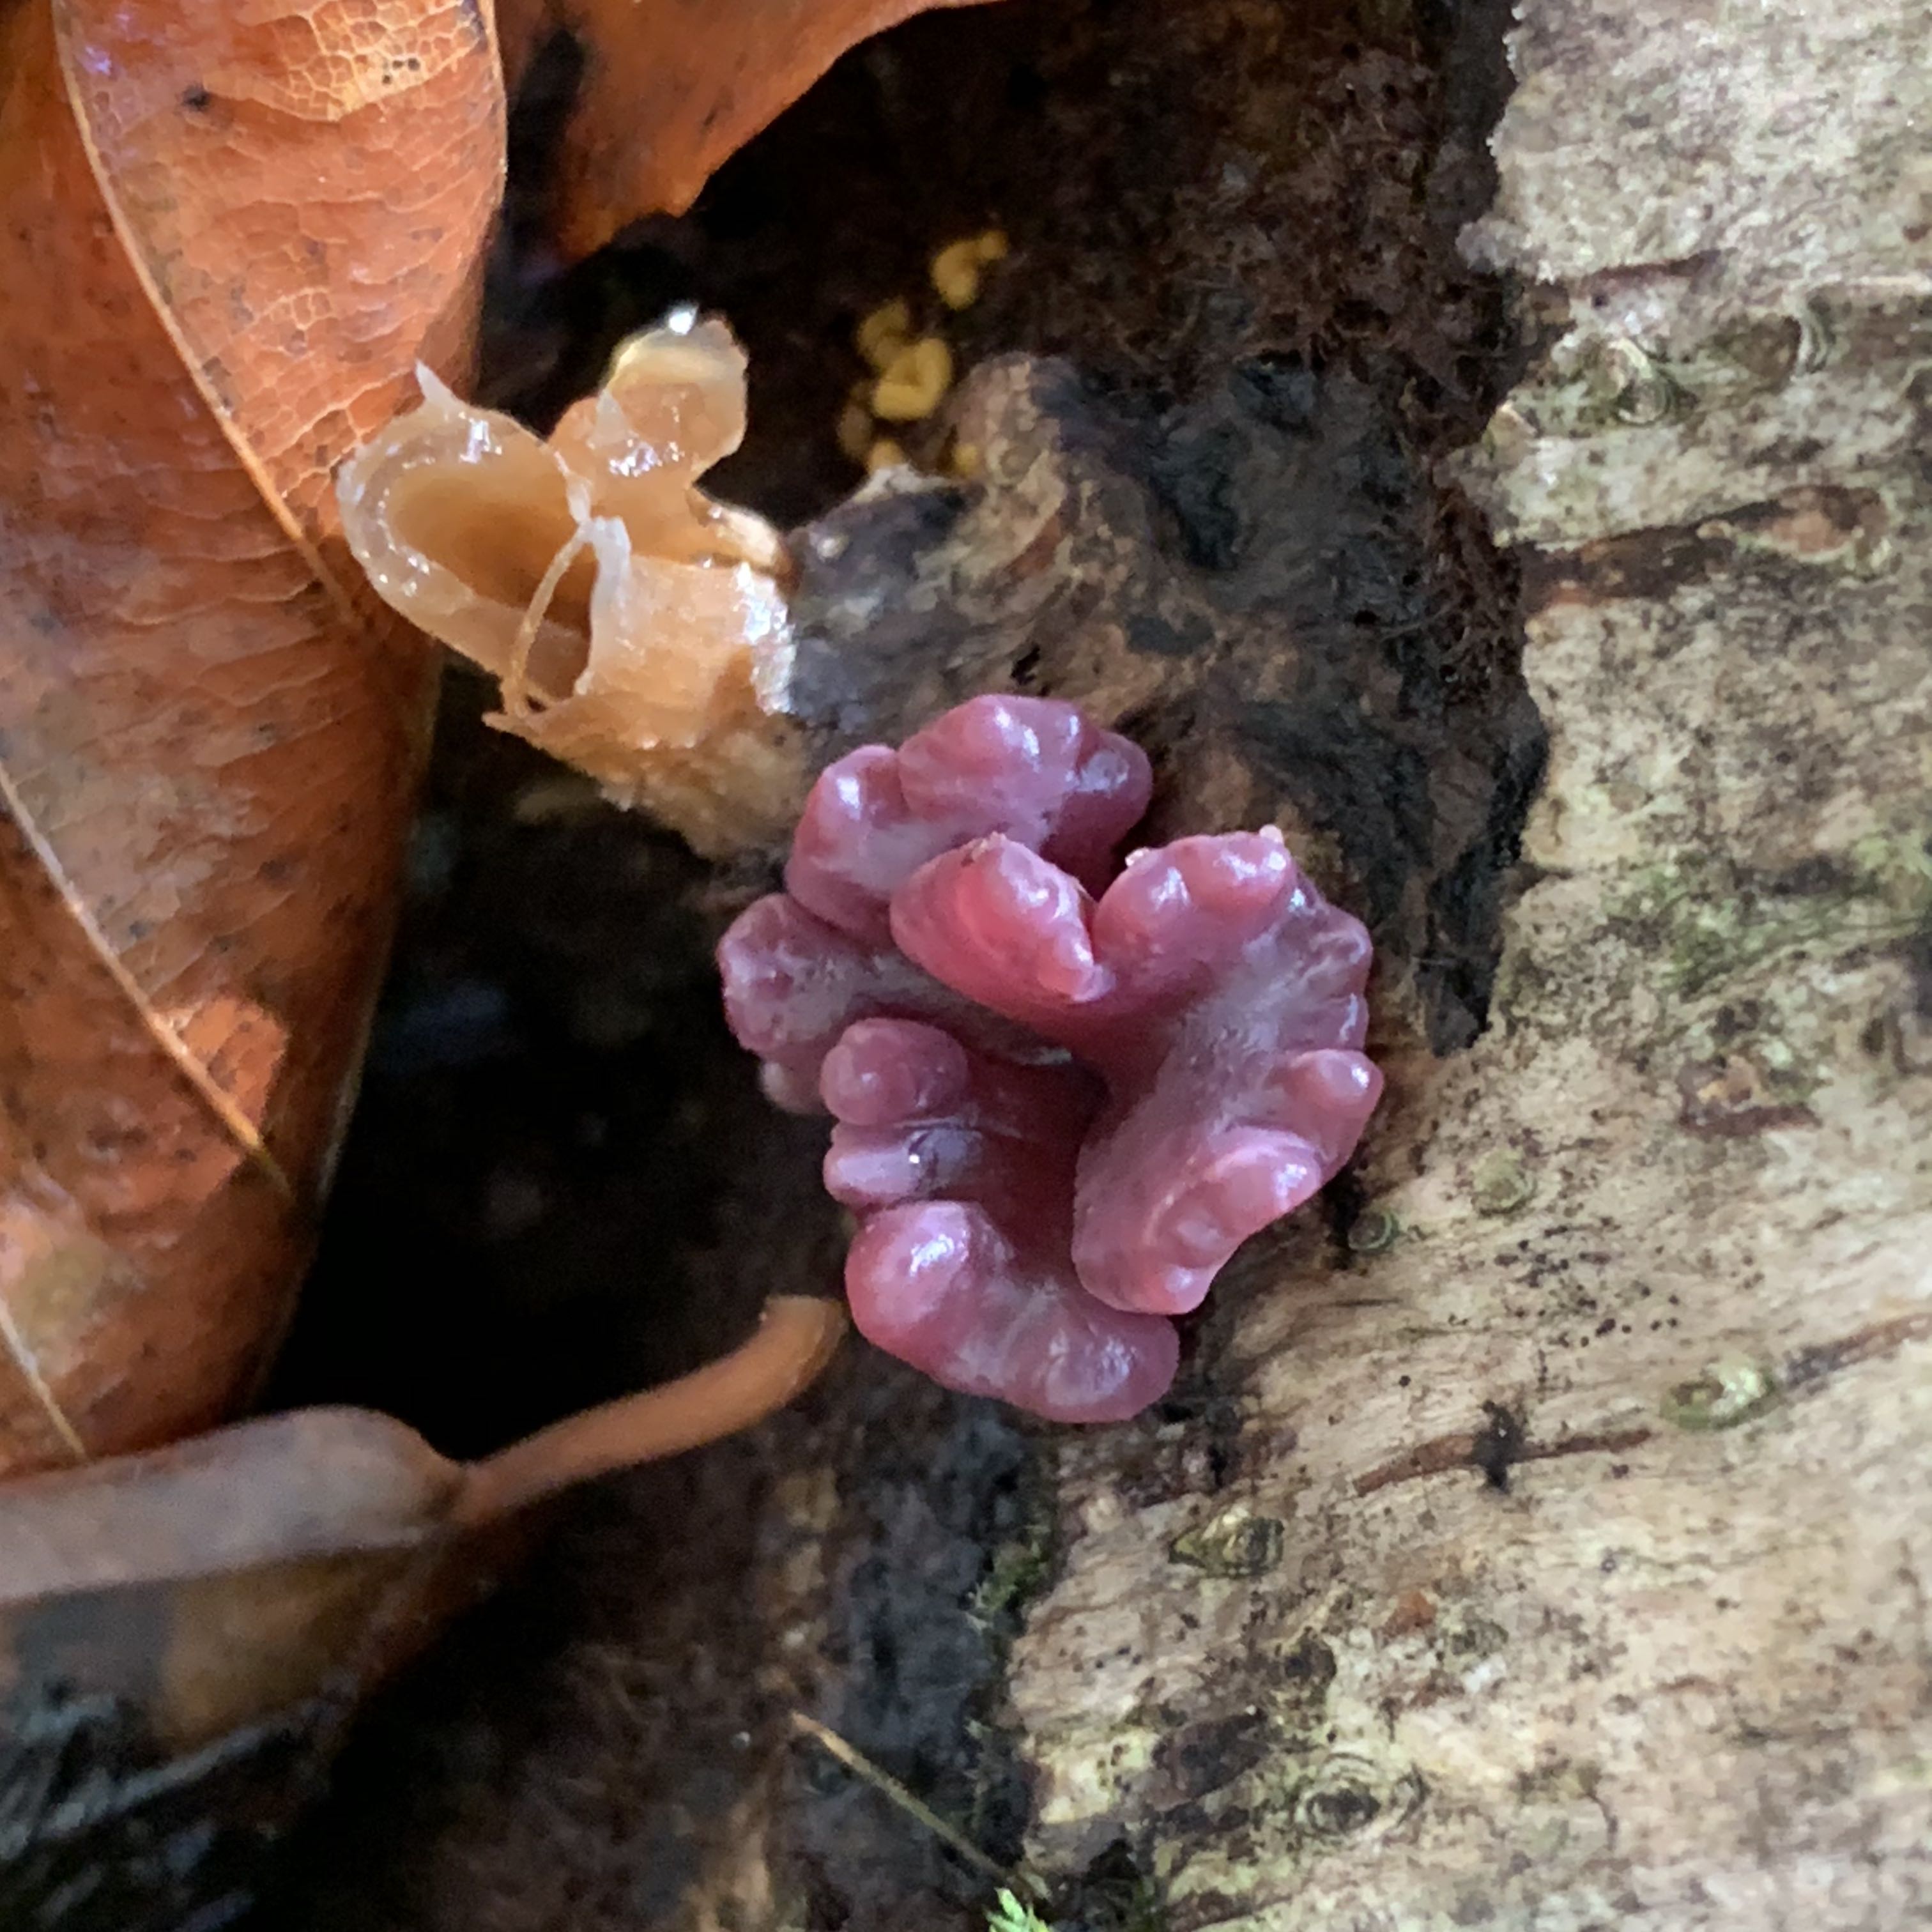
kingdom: Fungi
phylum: Ascomycota
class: Leotiomycetes
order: Helotiales
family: Gelatinodiscaceae
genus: Ascocoryne
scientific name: Ascocoryne sarcoides
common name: rødlilla sejskive
